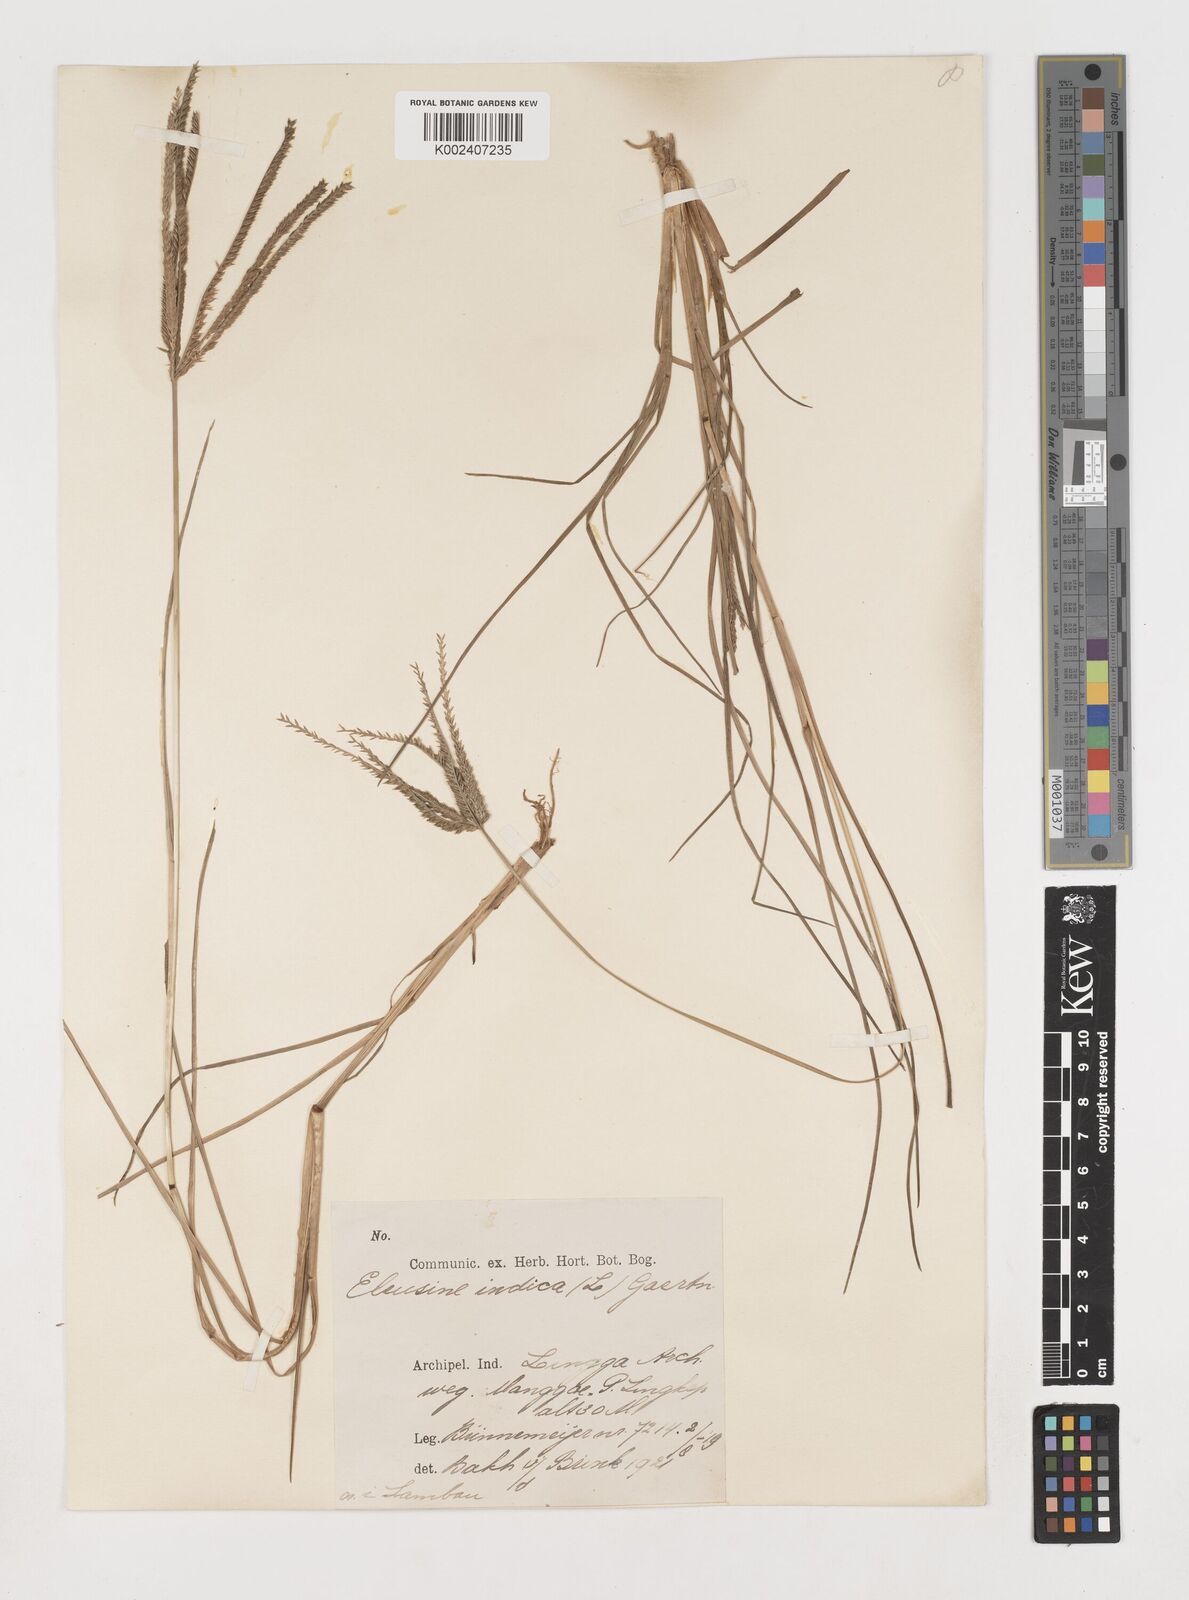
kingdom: Plantae
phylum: Tracheophyta
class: Liliopsida
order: Poales
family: Poaceae
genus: Eleusine
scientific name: Eleusine indica
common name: Yard-grass
